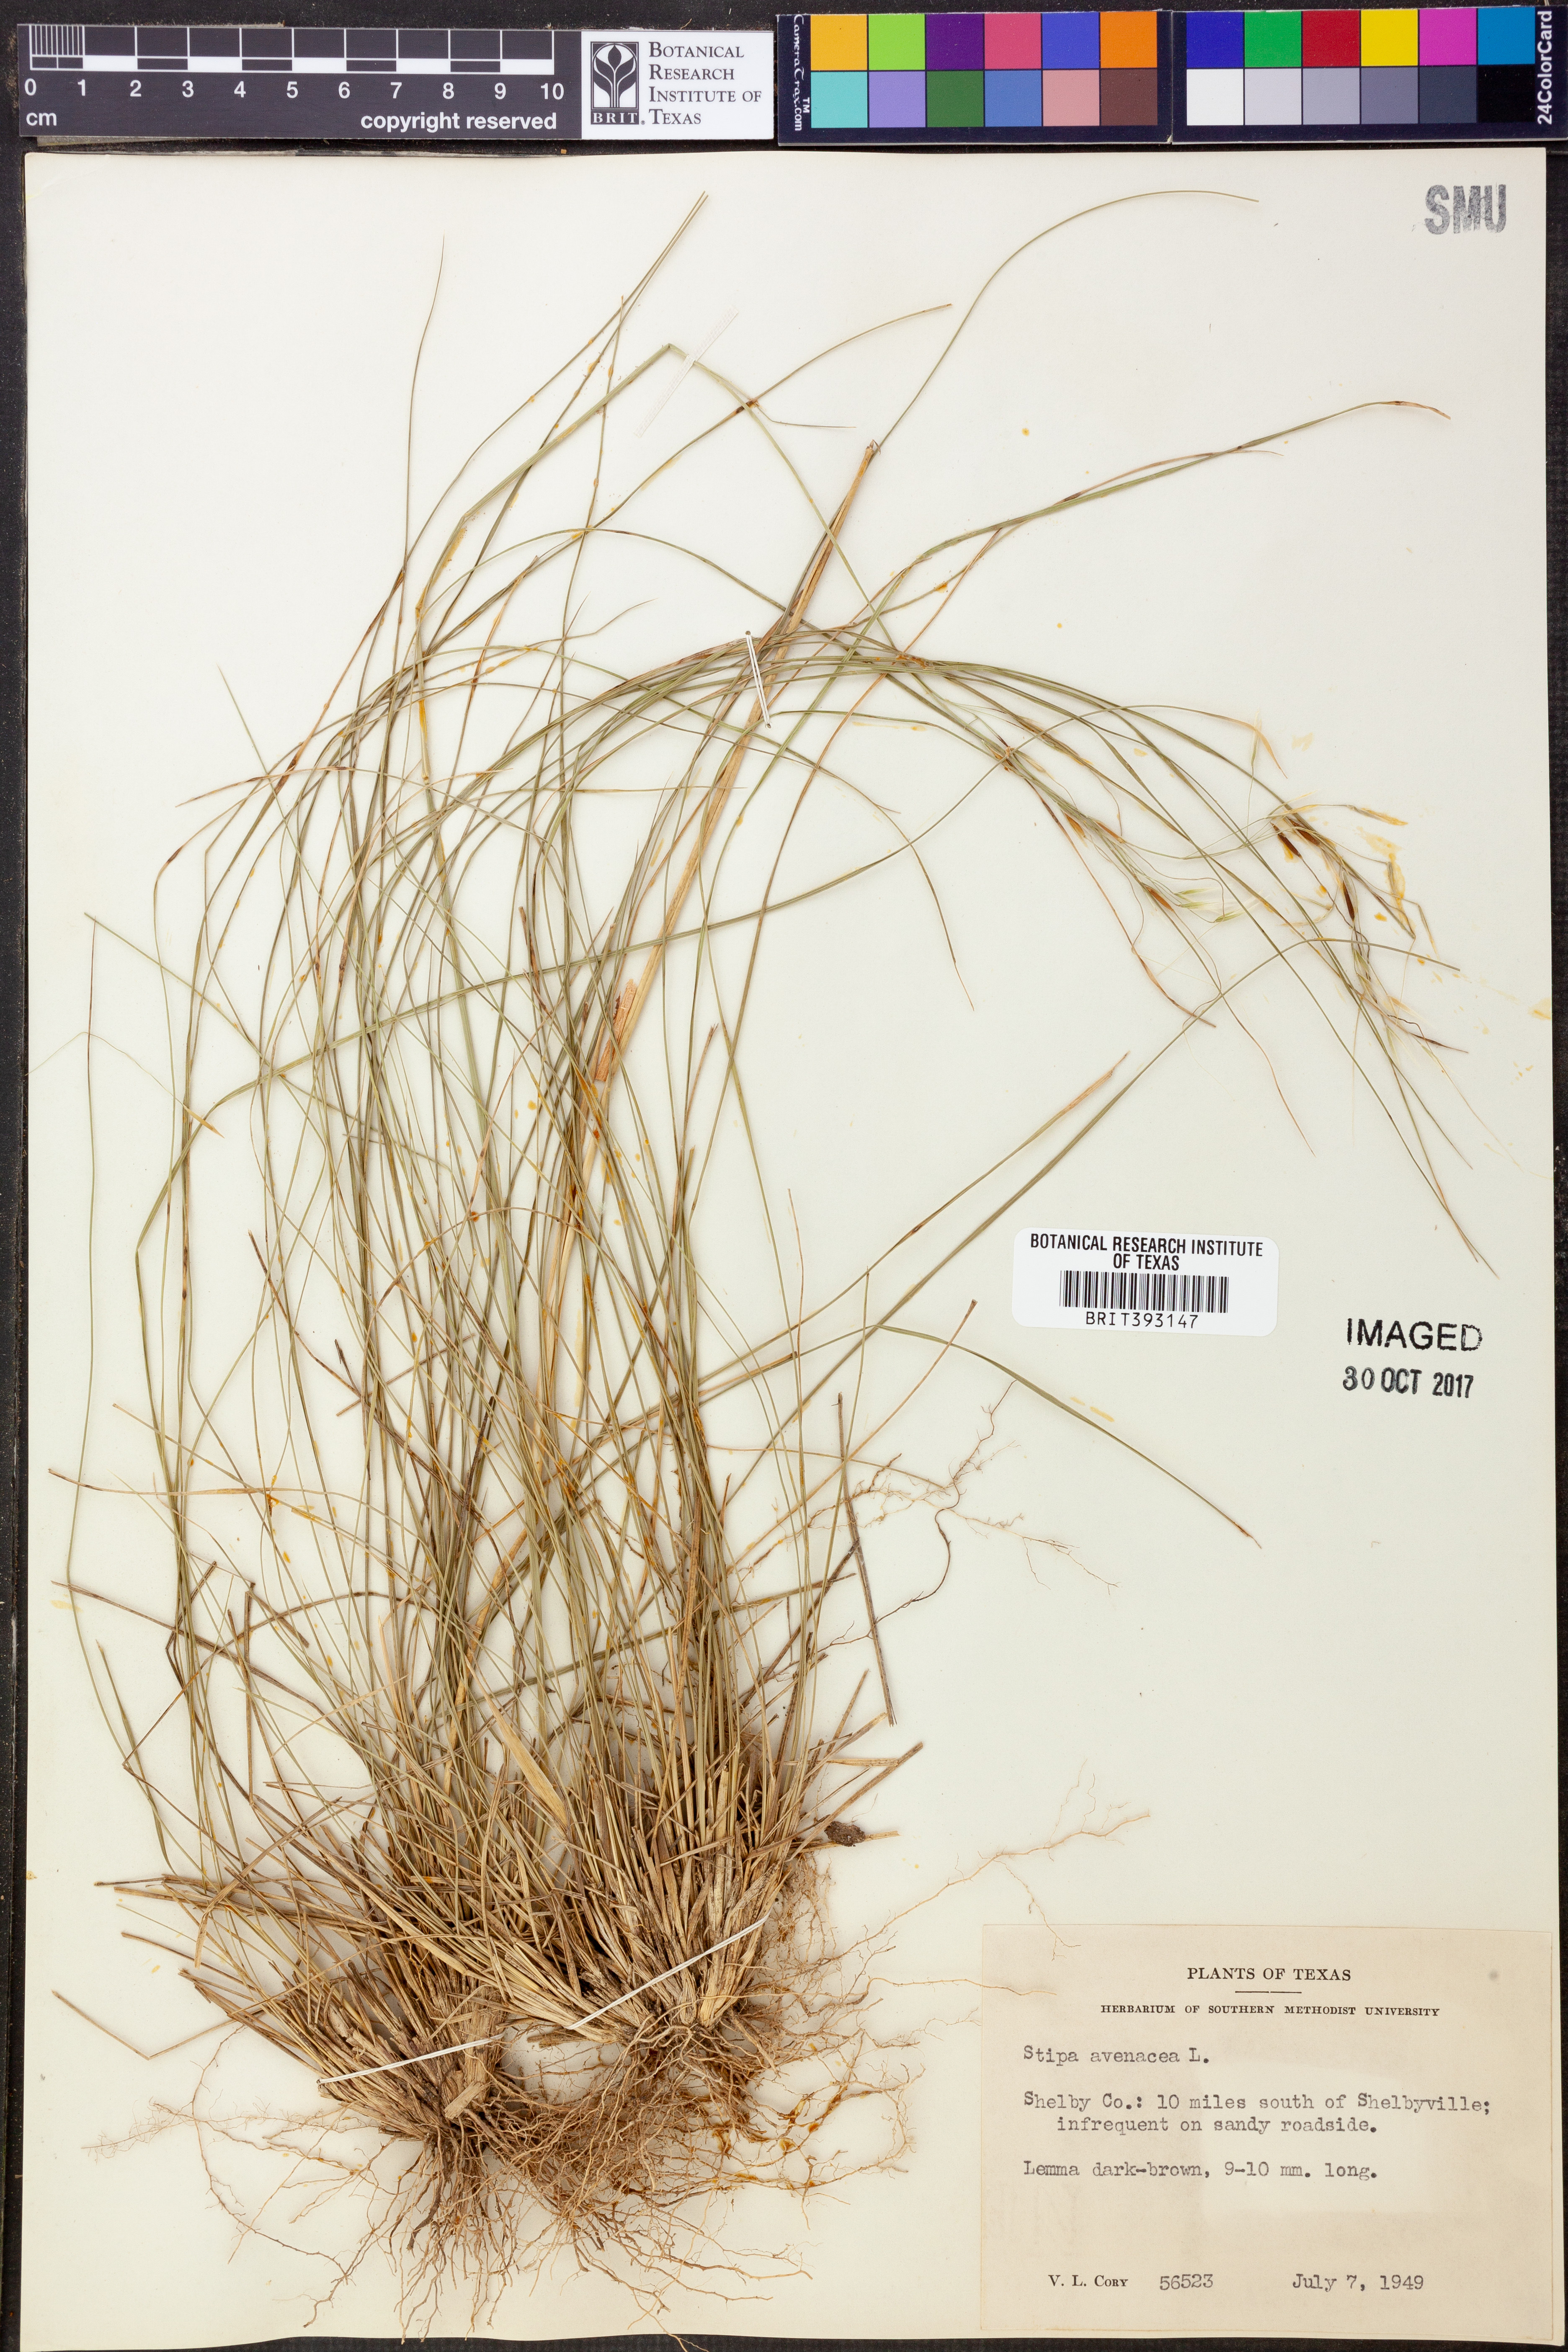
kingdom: Plantae
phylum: Tracheophyta
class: Liliopsida
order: Poales
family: Poaceae
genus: Piptochaetium
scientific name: Piptochaetium avenaceum
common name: Black bunchgrass
